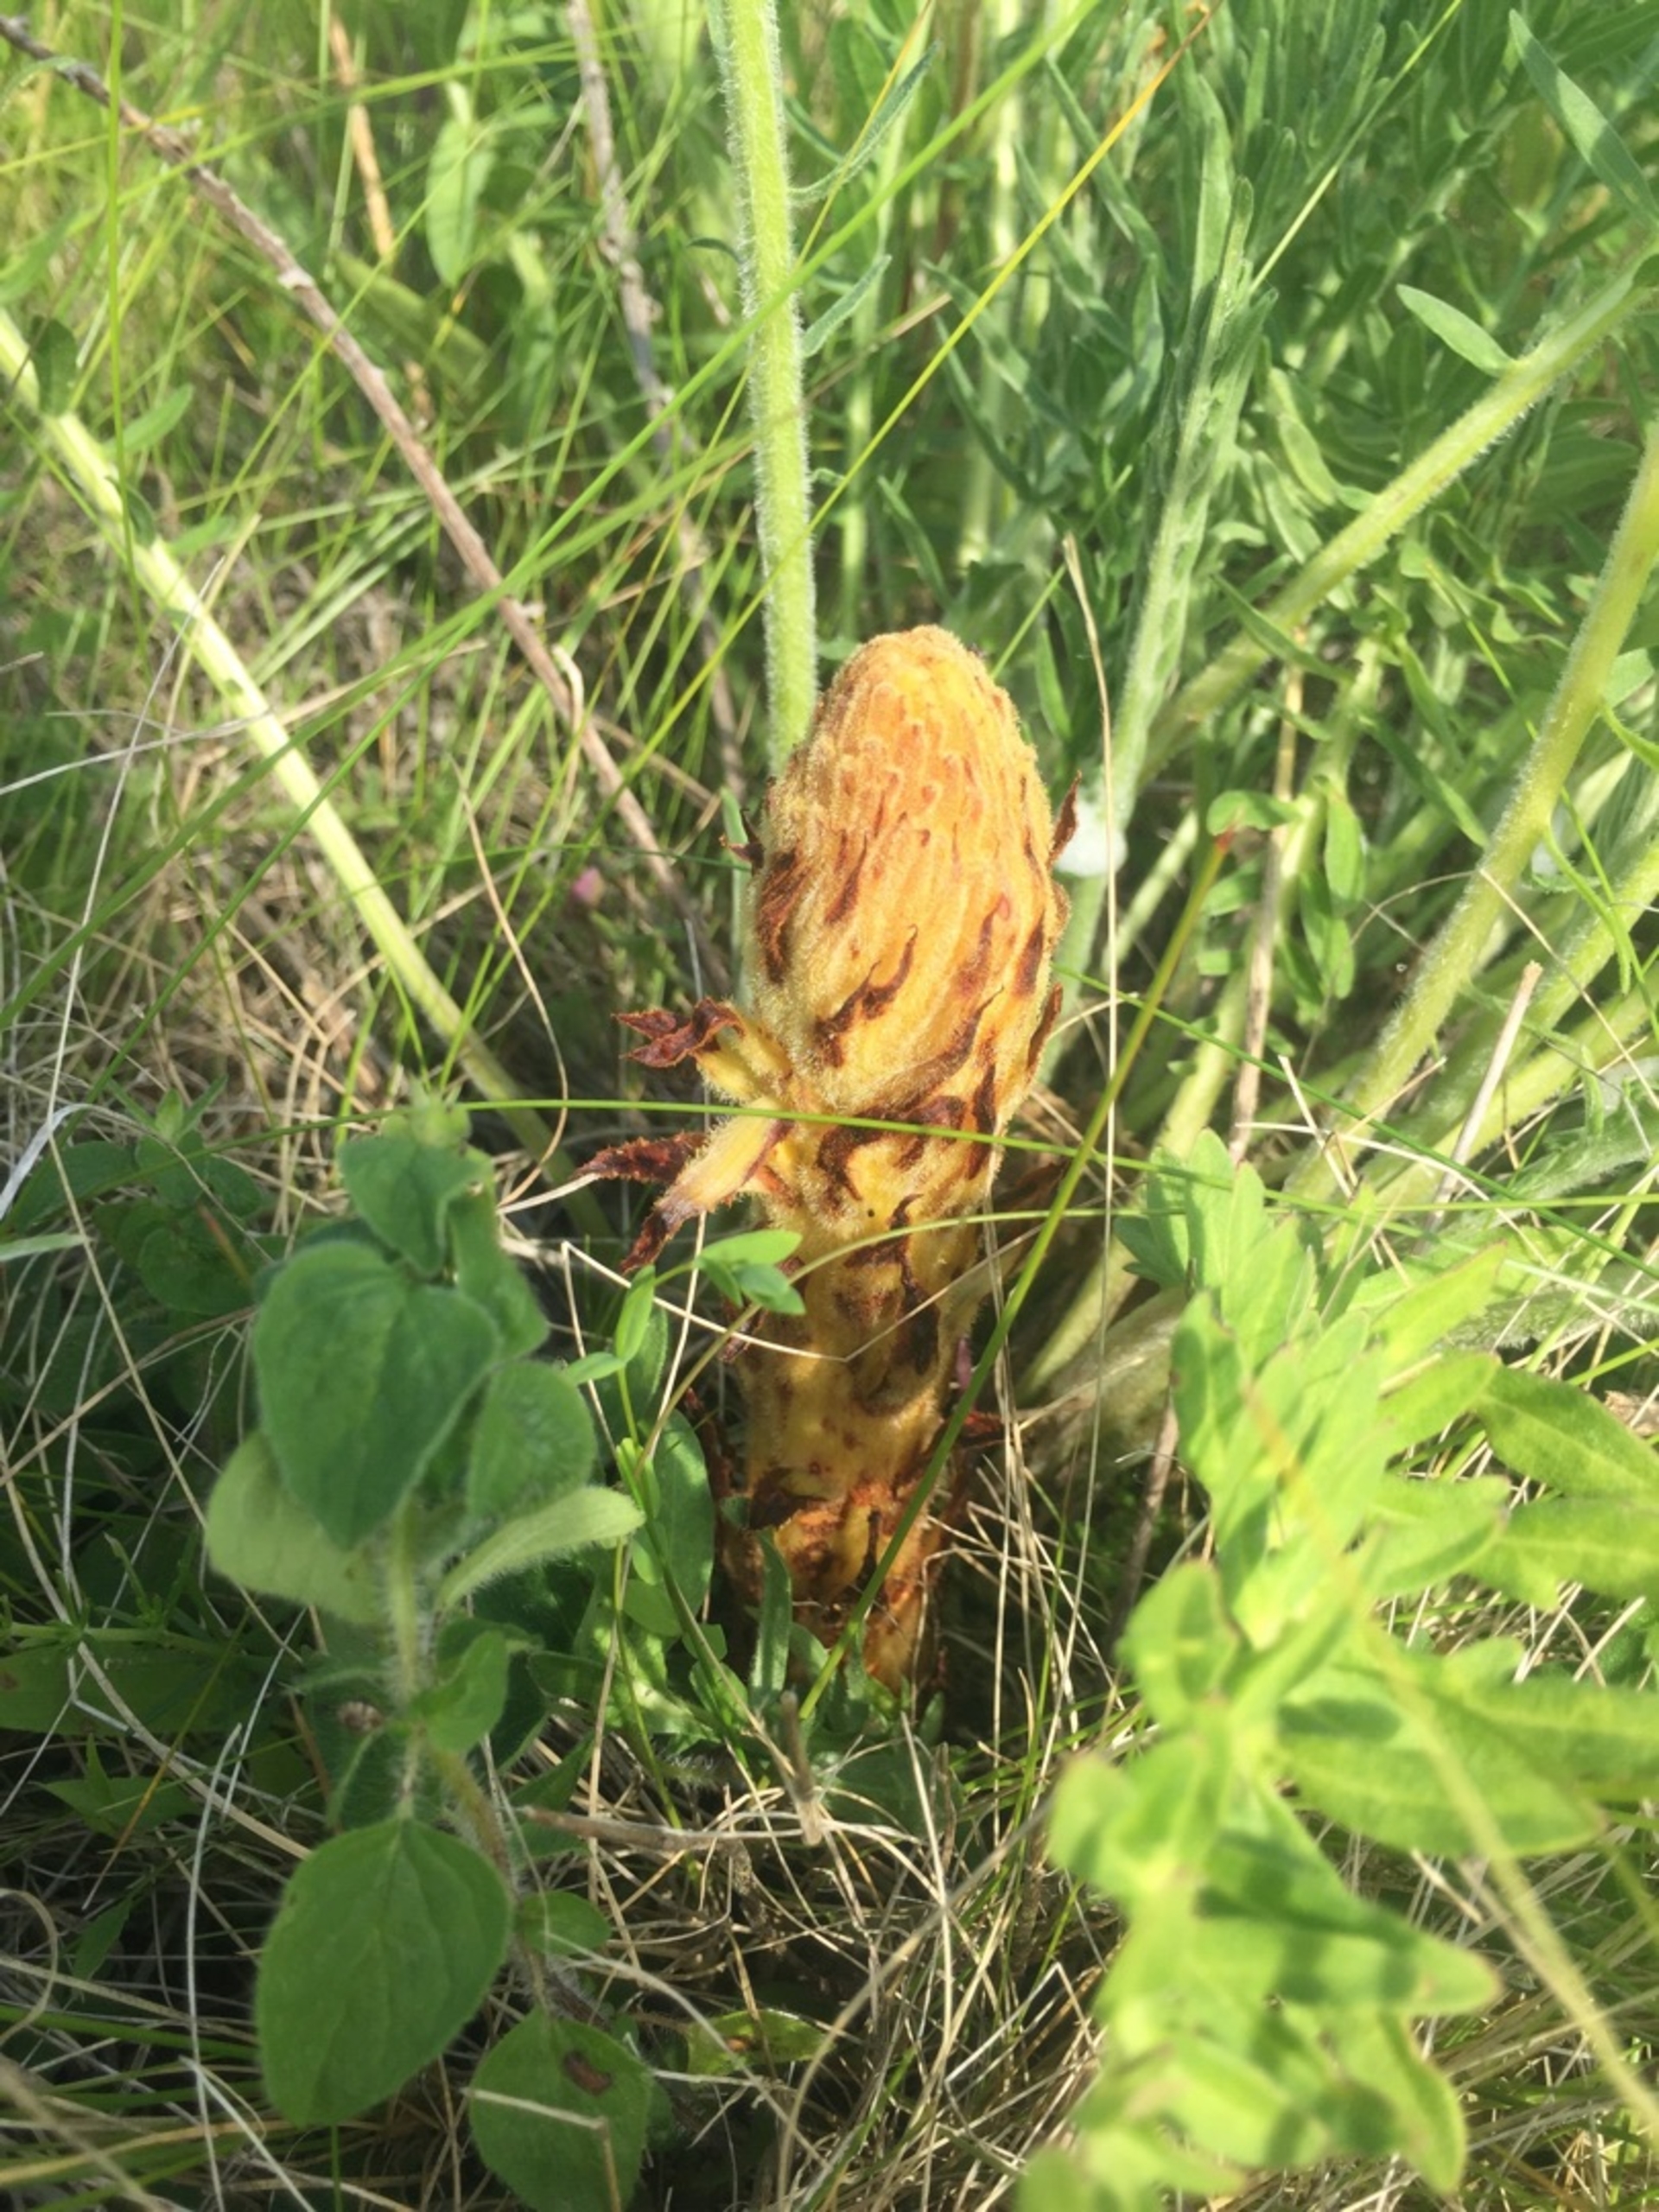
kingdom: Plantae
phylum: Tracheophyta
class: Magnoliopsida
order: Lamiales
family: Orobanchaceae
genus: Orobanche
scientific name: Orobanche elatior
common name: Stor gyvelkvæler
